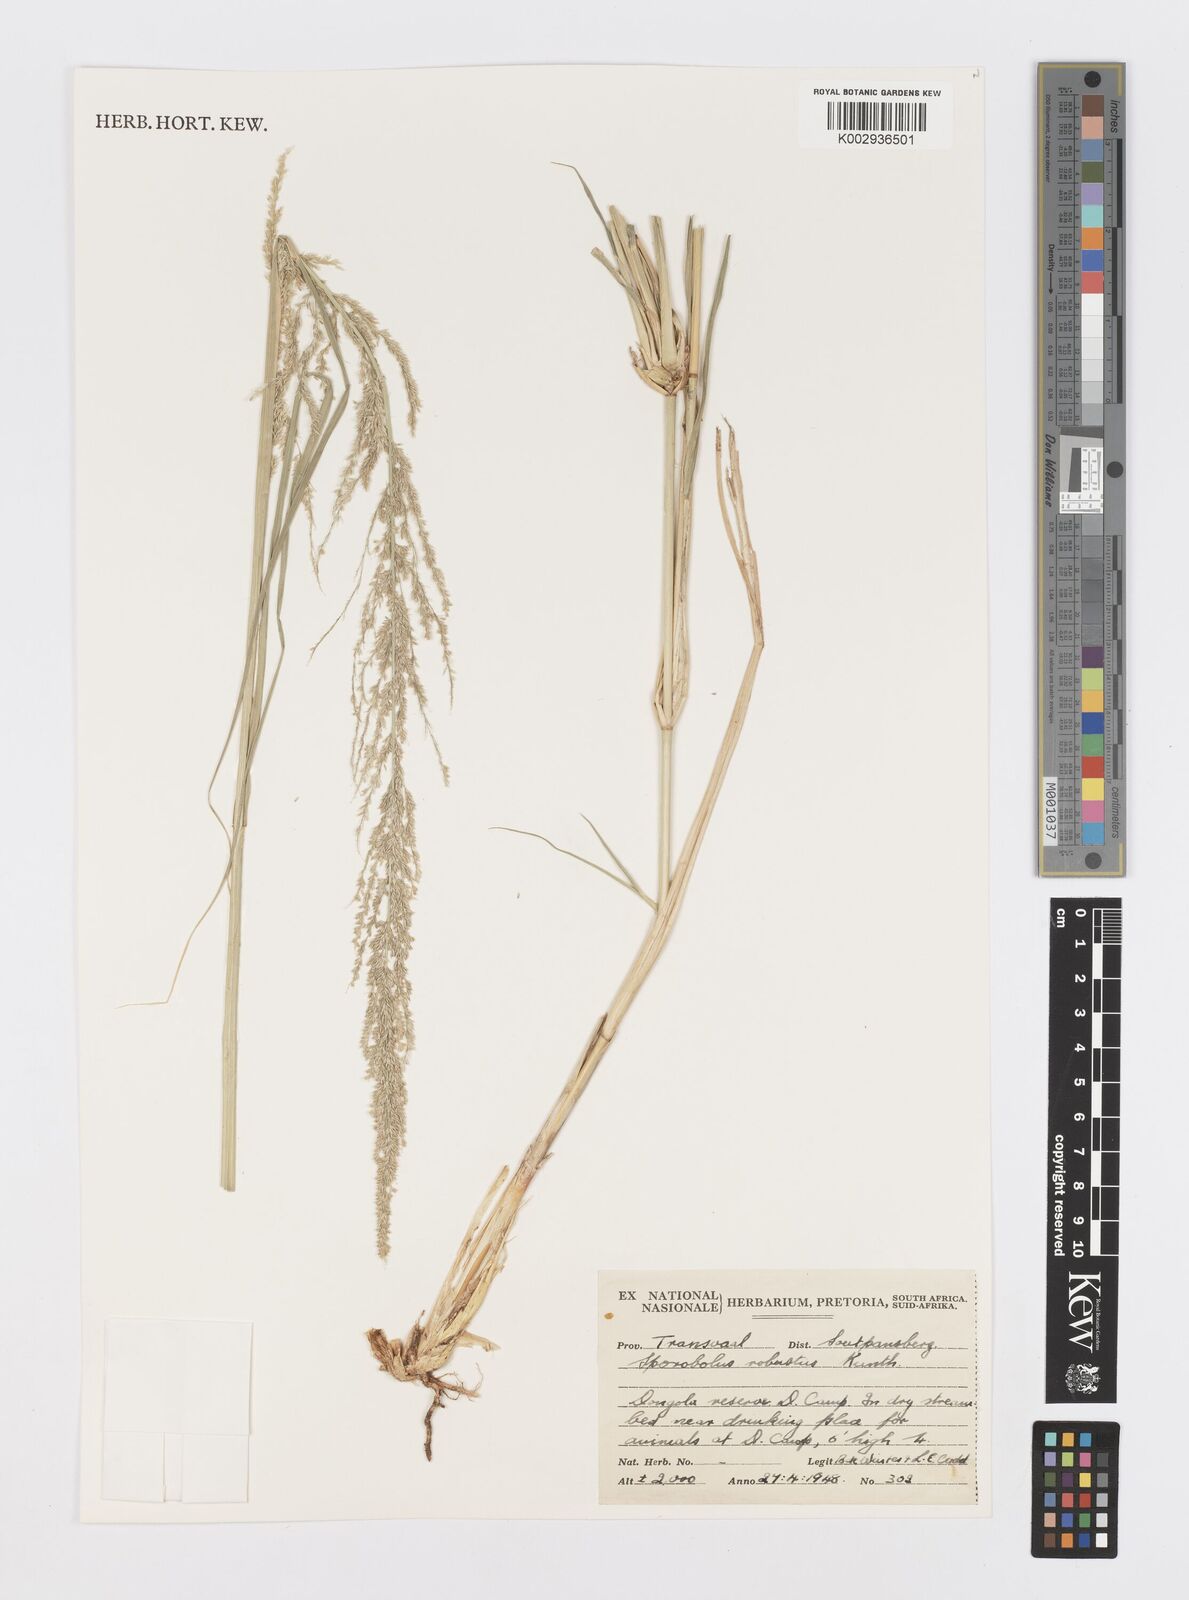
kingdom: Plantae
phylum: Tracheophyta
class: Liliopsida
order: Poales
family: Poaceae
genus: Sporobolus
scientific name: Sporobolus consimilis
